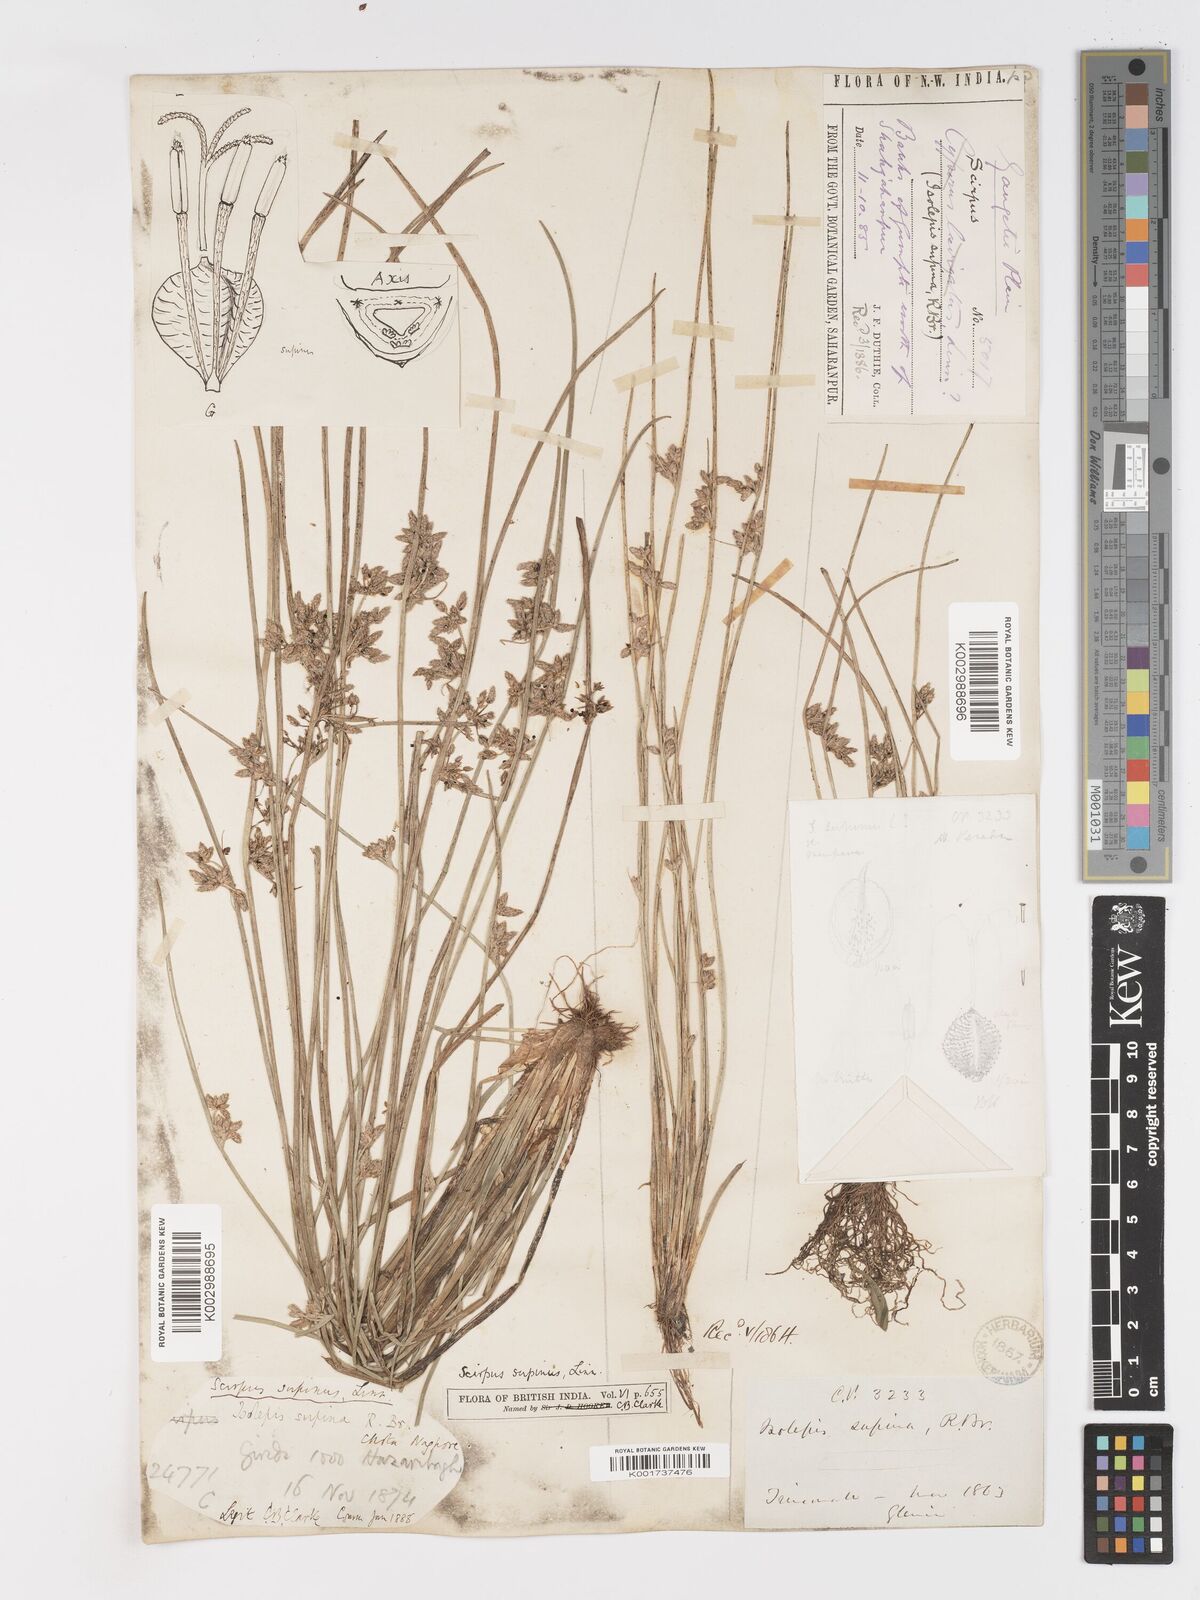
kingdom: Plantae
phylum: Tracheophyta
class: Liliopsida
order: Poales
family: Cyperaceae
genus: Schoenoplectiella
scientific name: Schoenoplectiella lateriflora
